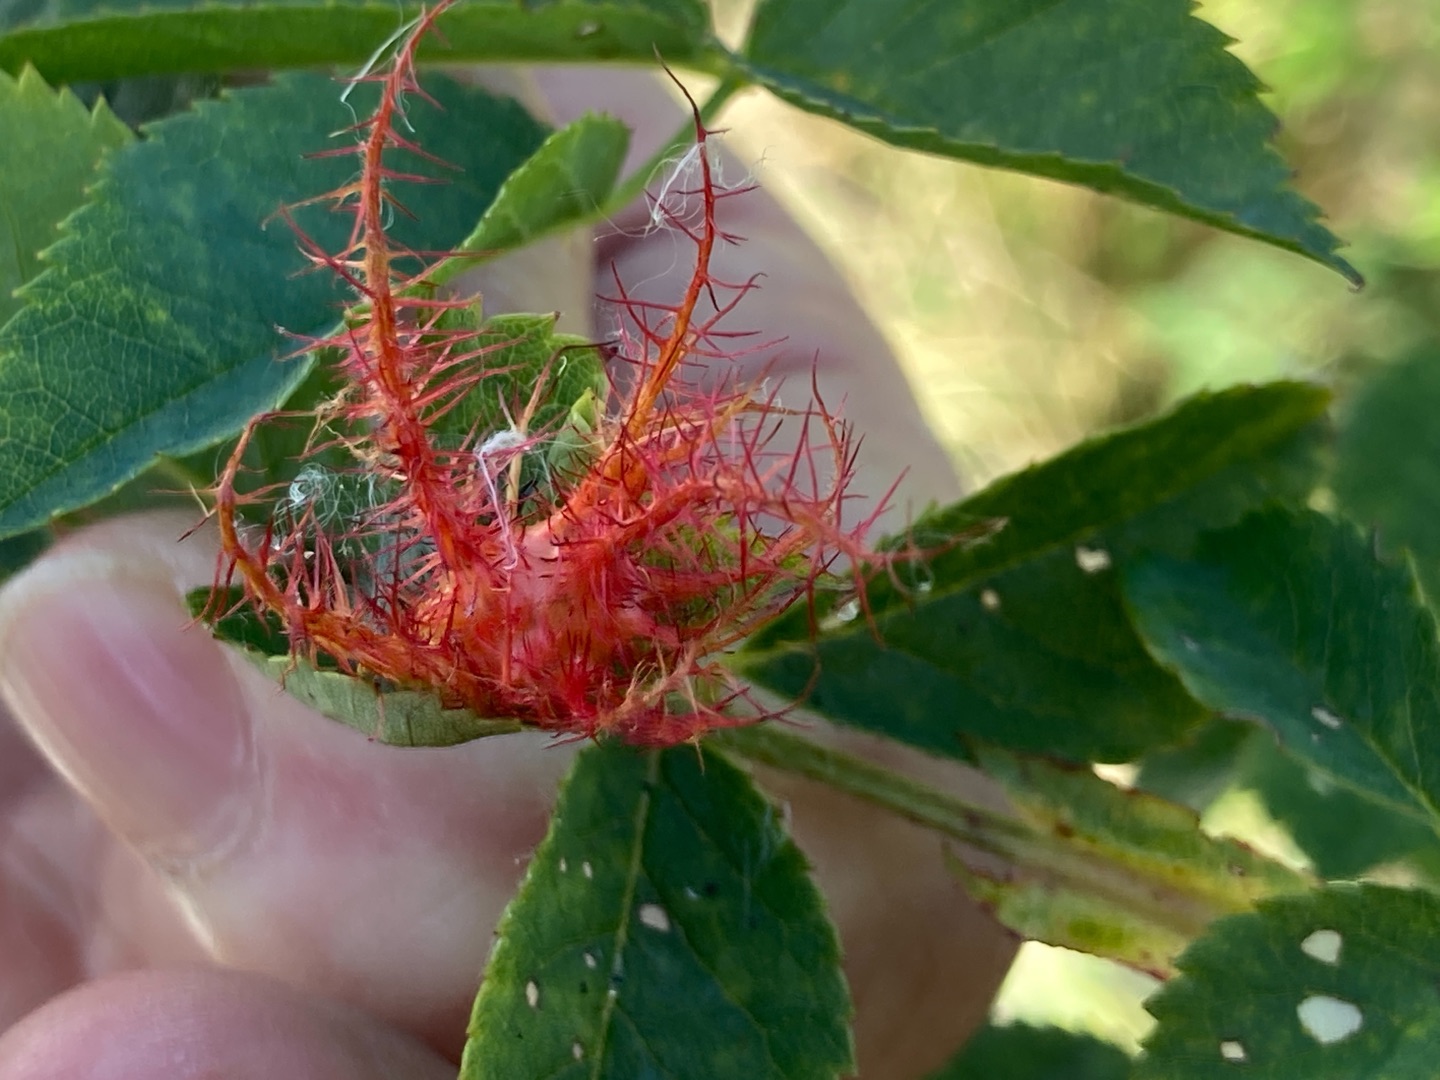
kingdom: Animalia
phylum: Arthropoda
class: Insecta
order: Hymenoptera
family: Cynipidae
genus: Diplolepis
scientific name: Diplolepis rosae
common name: Bedeguargalhveps
